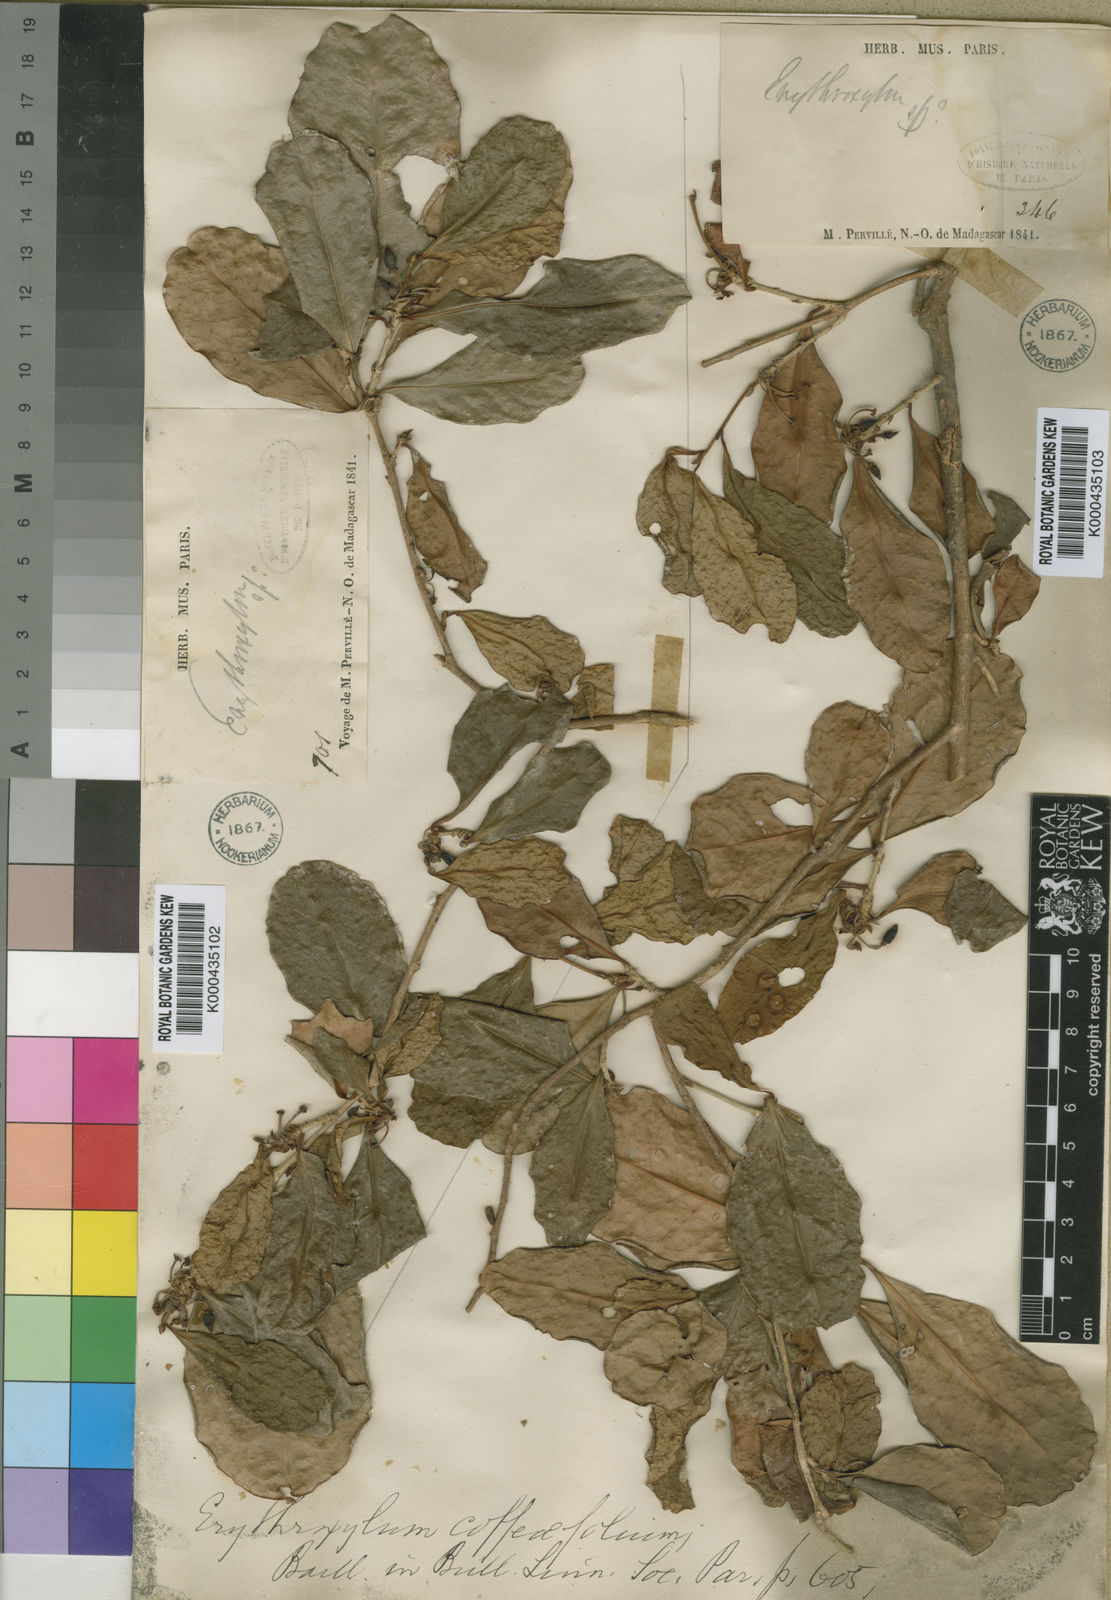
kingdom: Plantae
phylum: Tracheophyta
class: Magnoliopsida
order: Malpighiales
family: Erythroxylaceae
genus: Erythroxylum
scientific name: Erythroxylum pyrifolium
